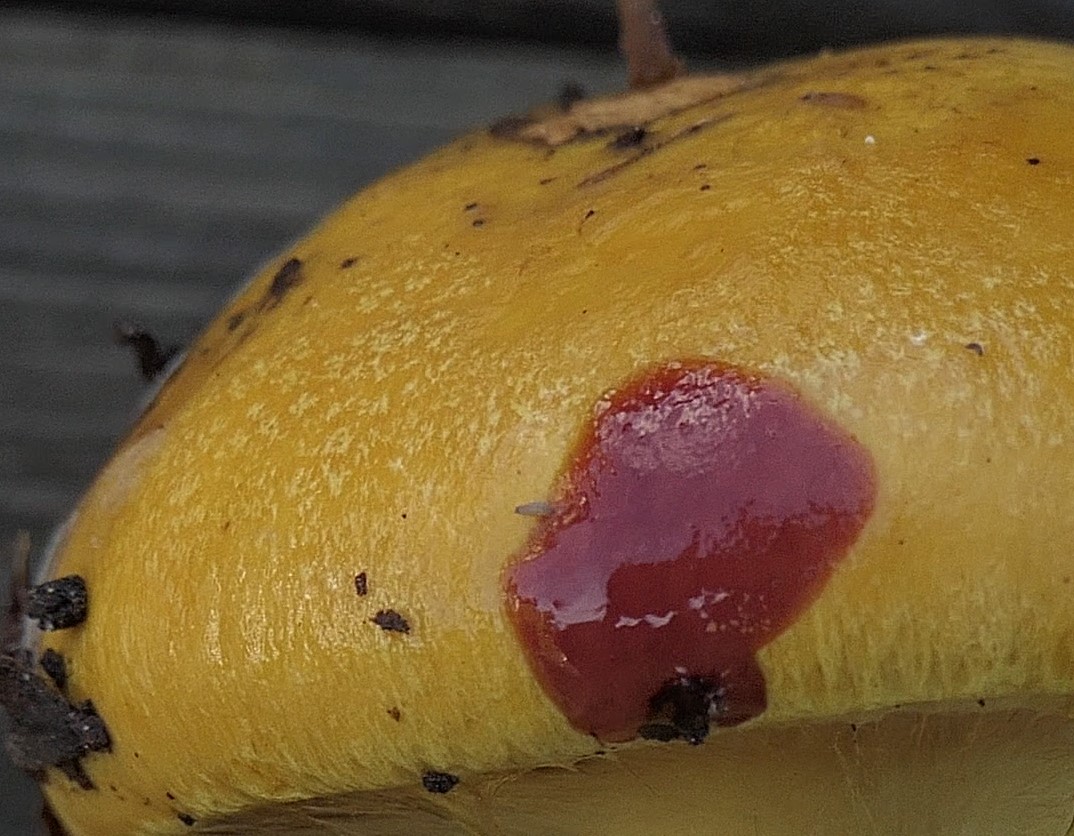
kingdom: Fungi
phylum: Basidiomycota
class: Agaricomycetes
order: Agaricales
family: Cortinariaceae
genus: Calonarius
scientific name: Calonarius alcalinophilus
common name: gyldenbrun slørhat
